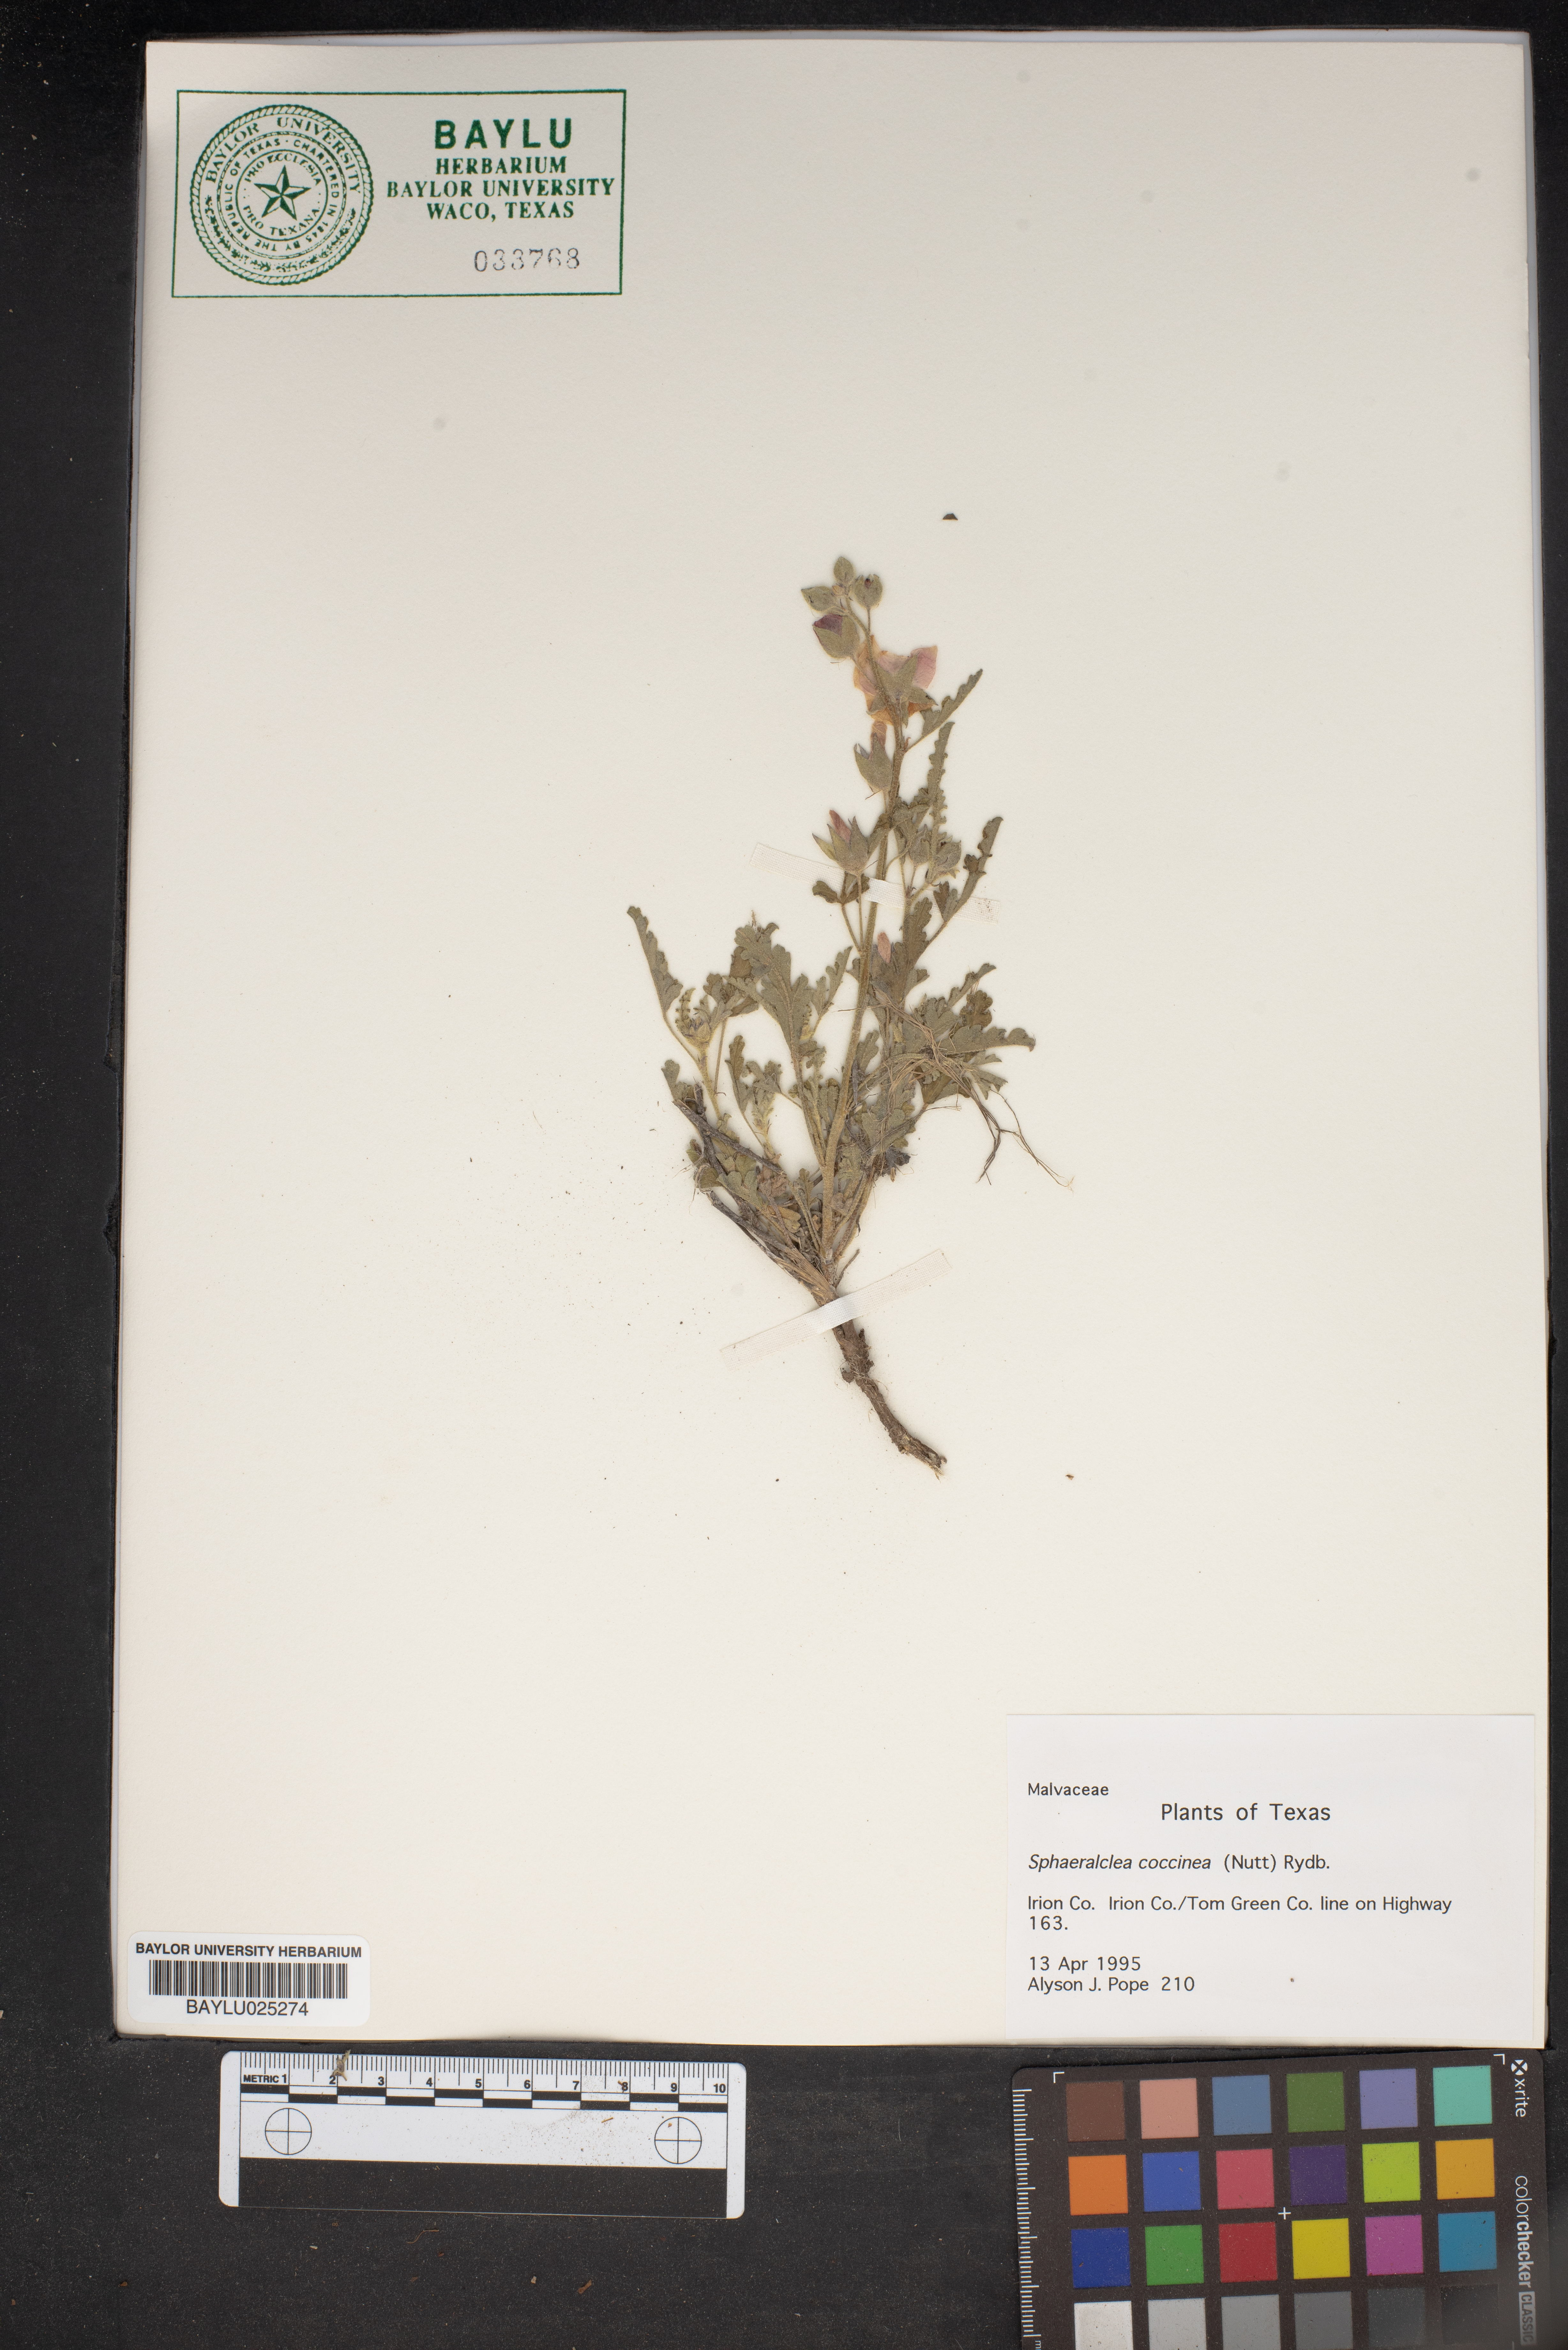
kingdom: Plantae
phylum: Tracheophyta
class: Magnoliopsida
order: Malvales
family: Malvaceae
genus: Sphaeralcea
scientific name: Sphaeralcea coccinea
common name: Moss-rose
